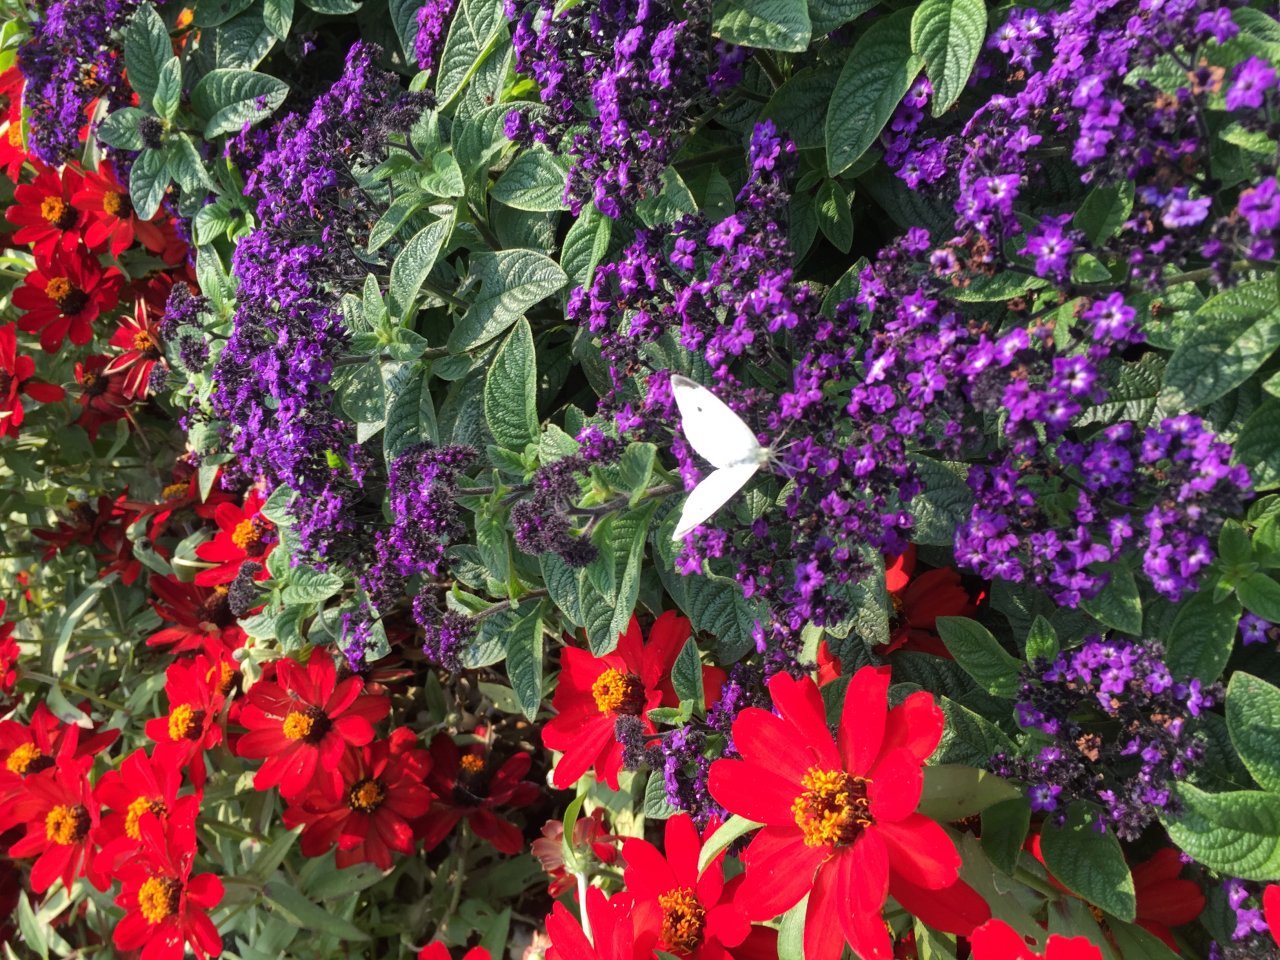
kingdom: Animalia
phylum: Arthropoda
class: Insecta
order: Lepidoptera
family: Pieridae
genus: Pieris
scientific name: Pieris rapae
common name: Cabbage White
